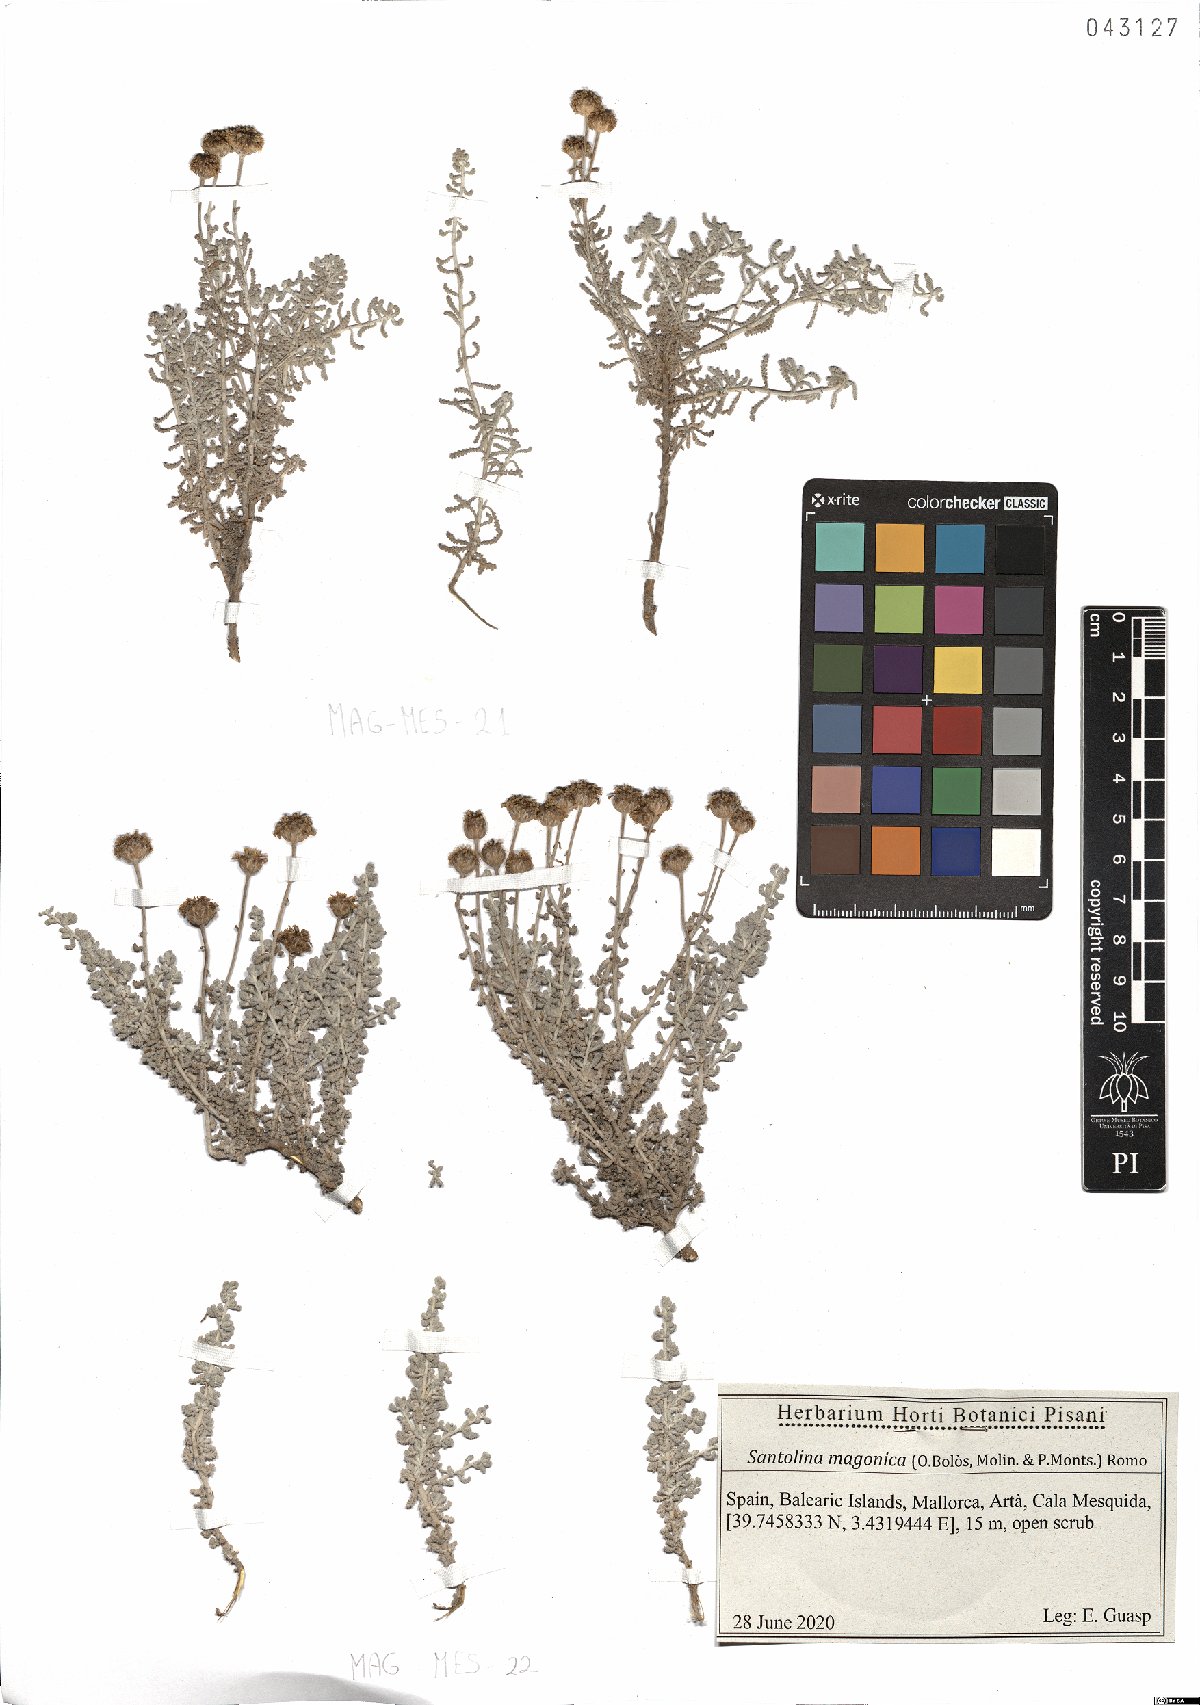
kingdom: Plantae
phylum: Tracheophyta
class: Magnoliopsida
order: Asterales
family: Asteraceae
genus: Santolina
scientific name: Santolina magonica
